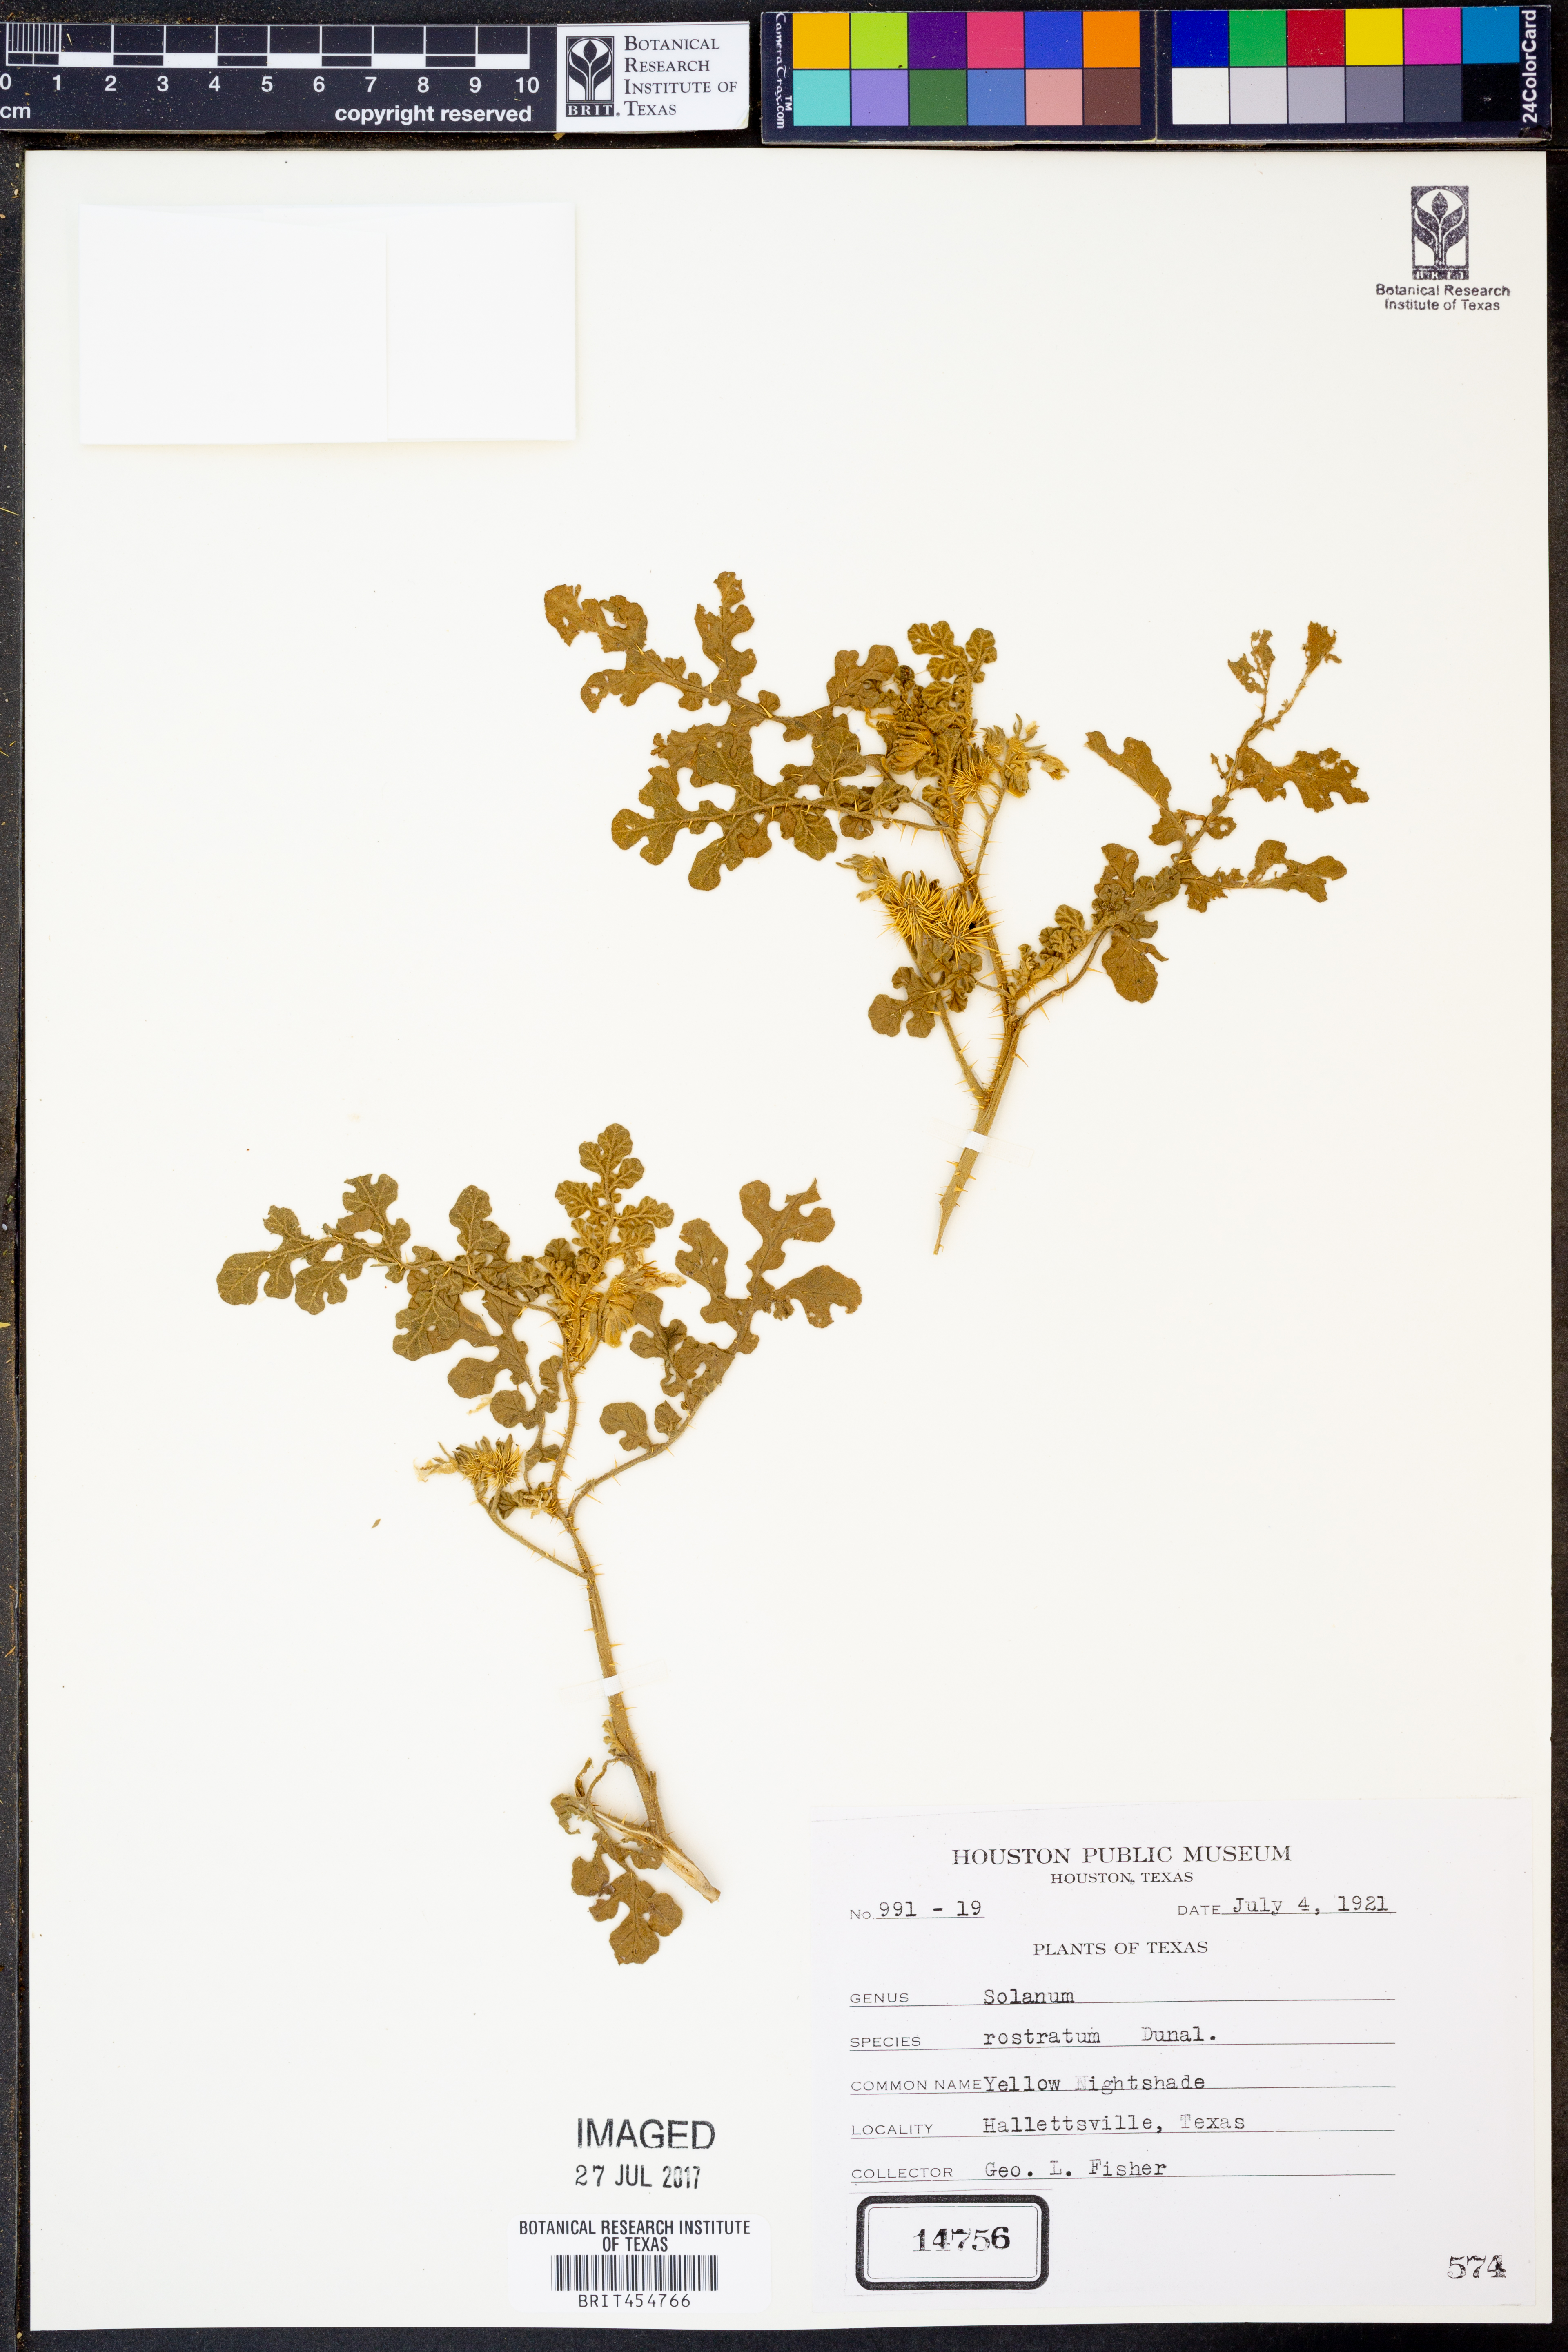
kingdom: Plantae
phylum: Tracheophyta
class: Magnoliopsida
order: Solanales
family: Solanaceae
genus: Solanum
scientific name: Solanum angustifolium
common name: Buffalobur nightshade
